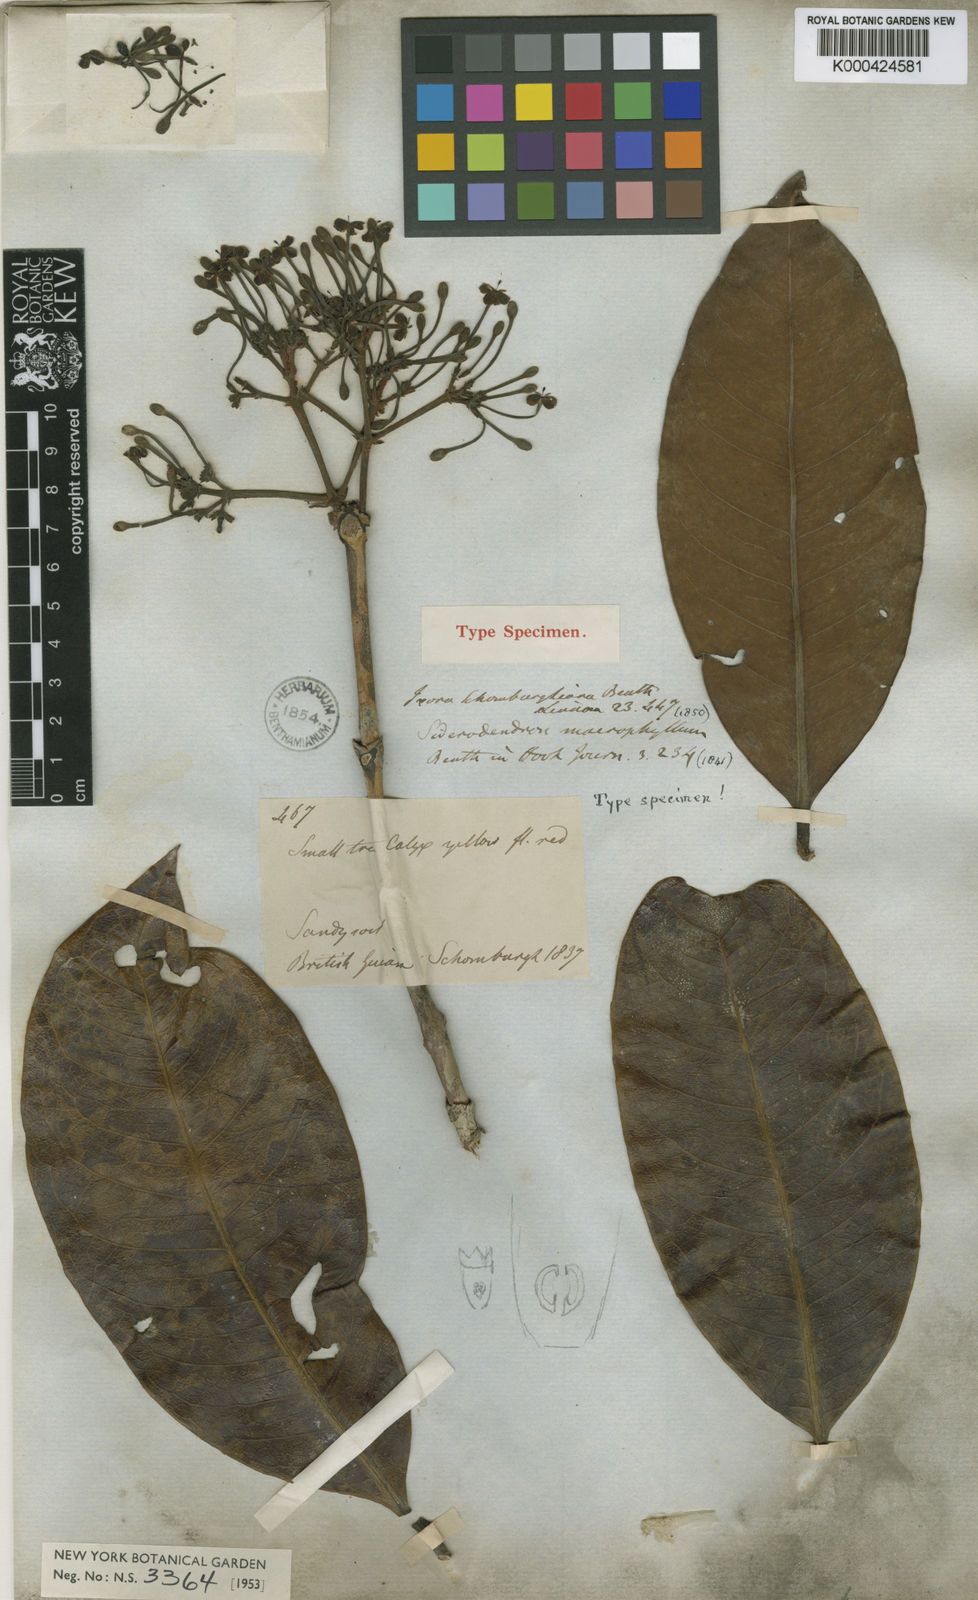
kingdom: Plantae
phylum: Tracheophyta
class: Magnoliopsida
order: Gentianales
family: Rubiaceae
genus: Ixora
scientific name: Ixora schomburgkiana
